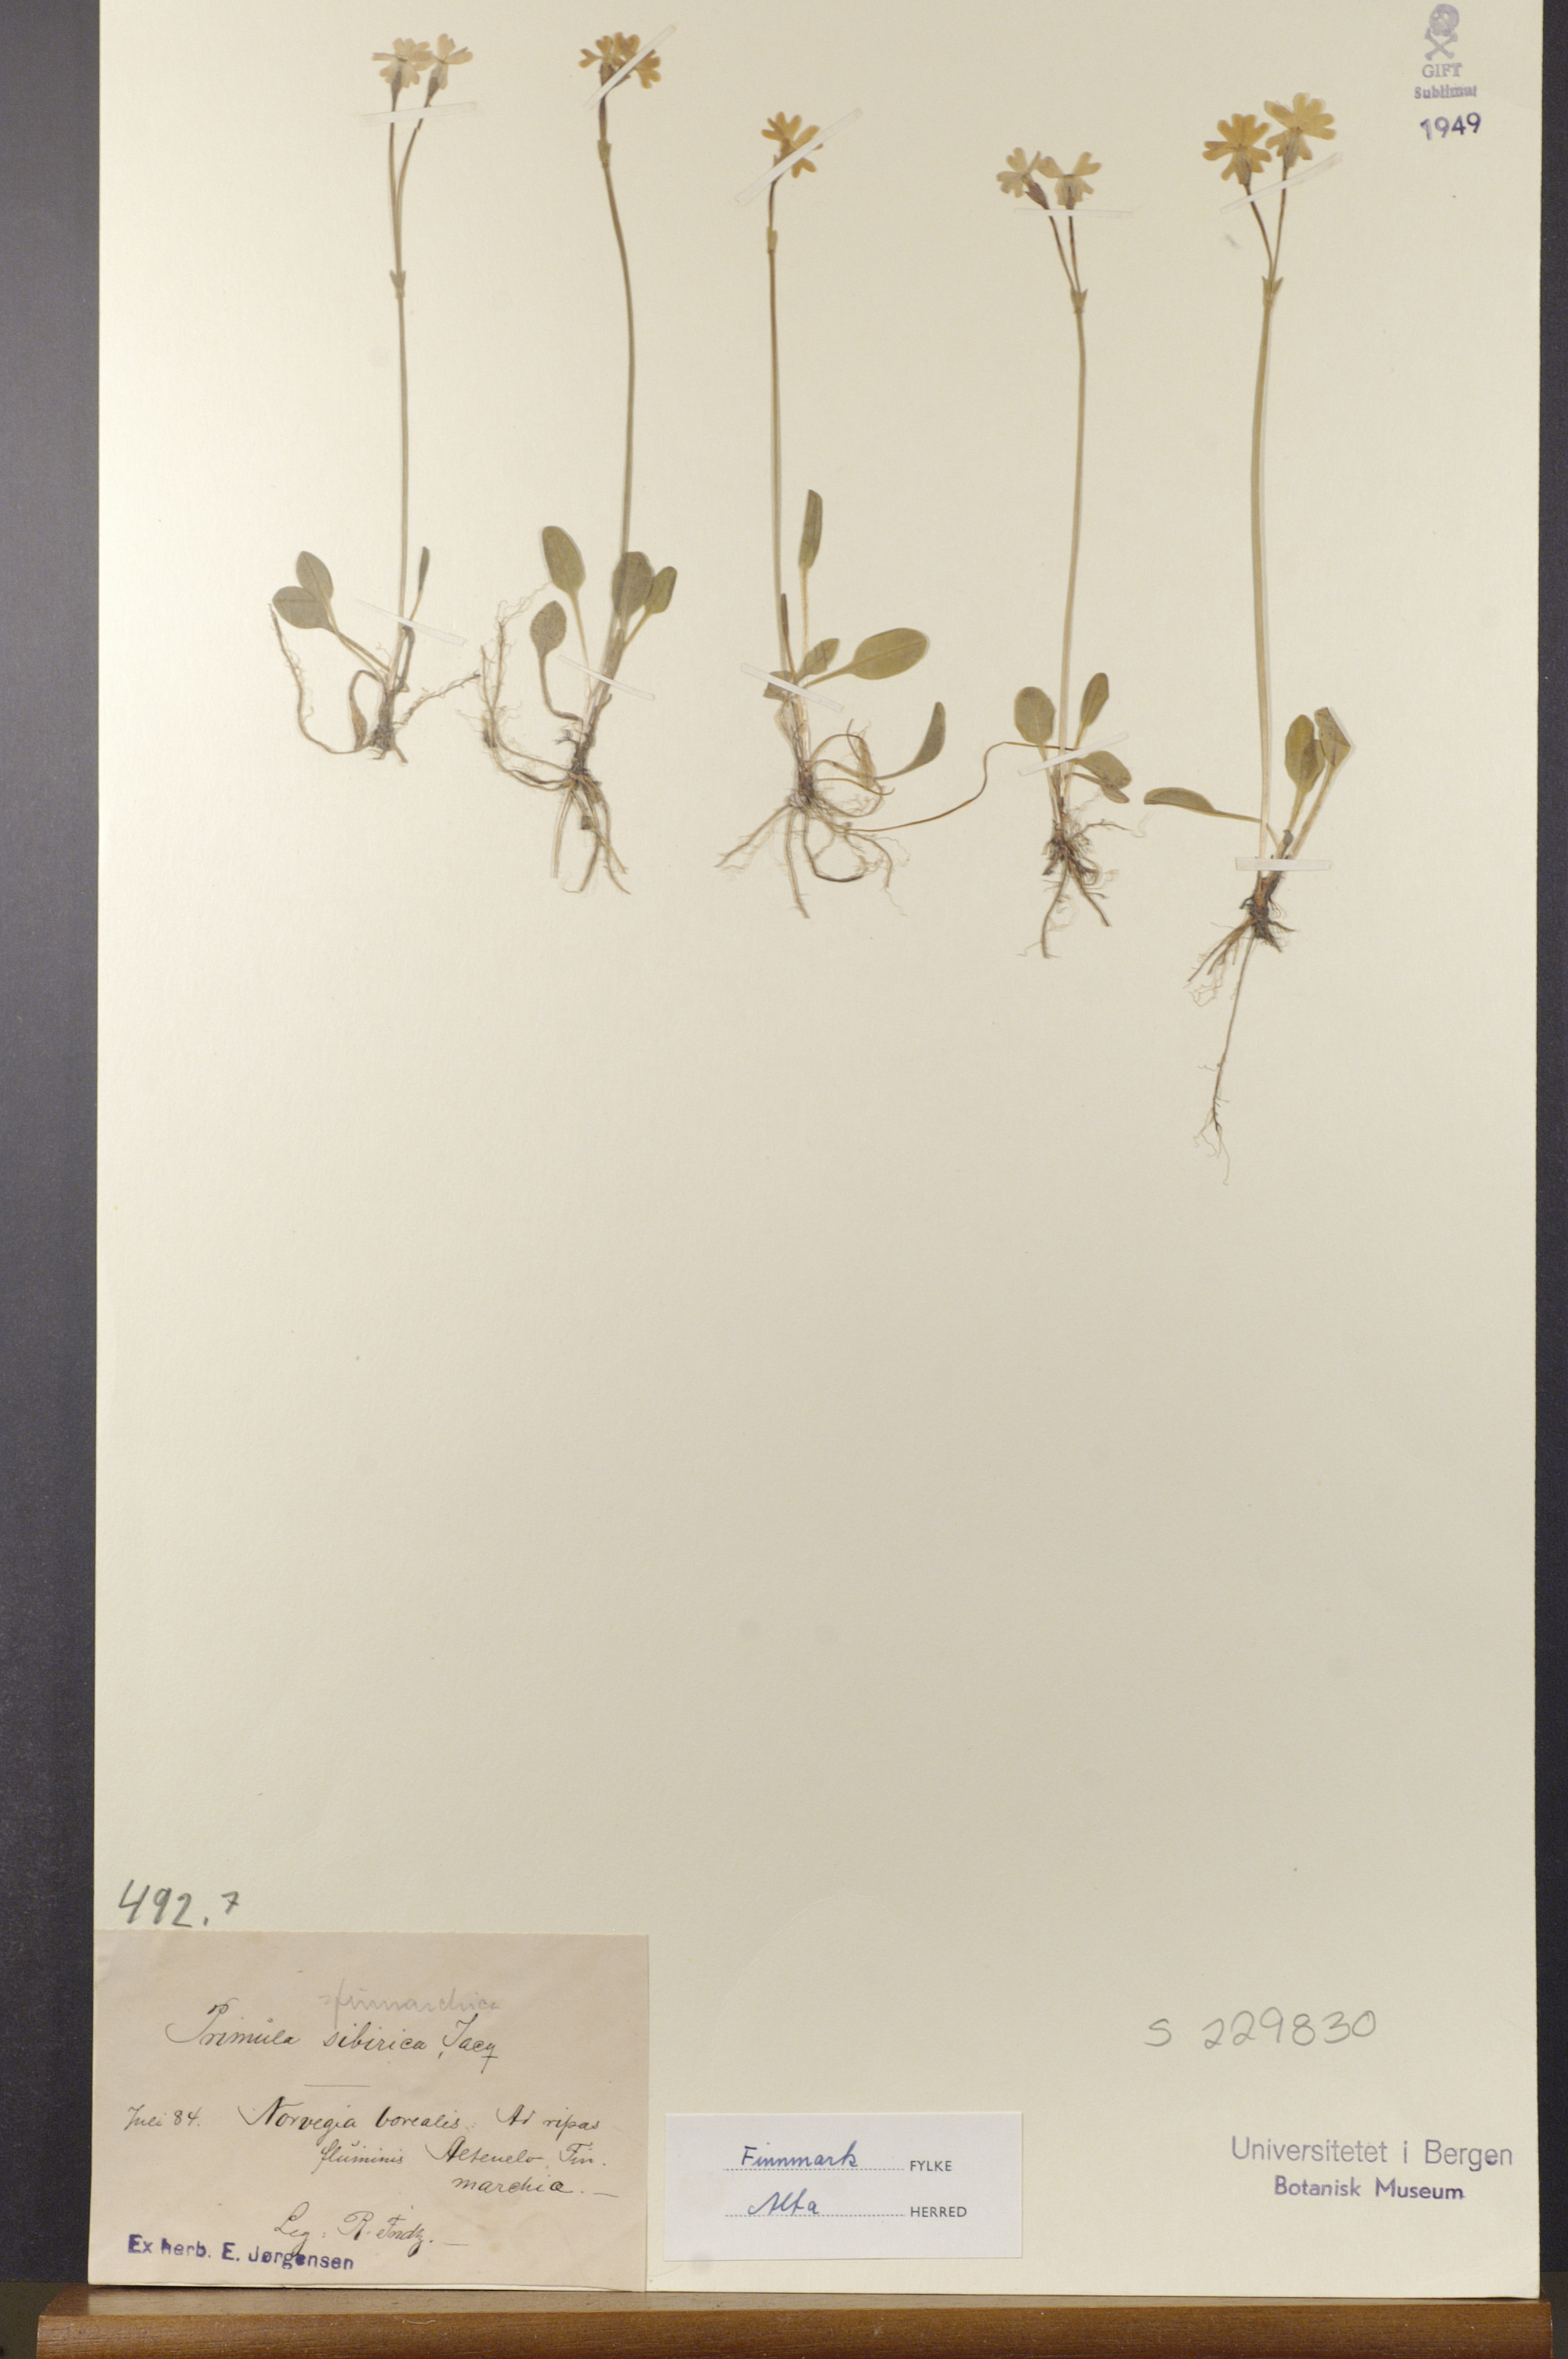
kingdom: Plantae
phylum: Tracheophyta
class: Magnoliopsida
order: Ericales
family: Primulaceae
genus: Primula
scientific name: Primula nutans
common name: Siberian primrose
